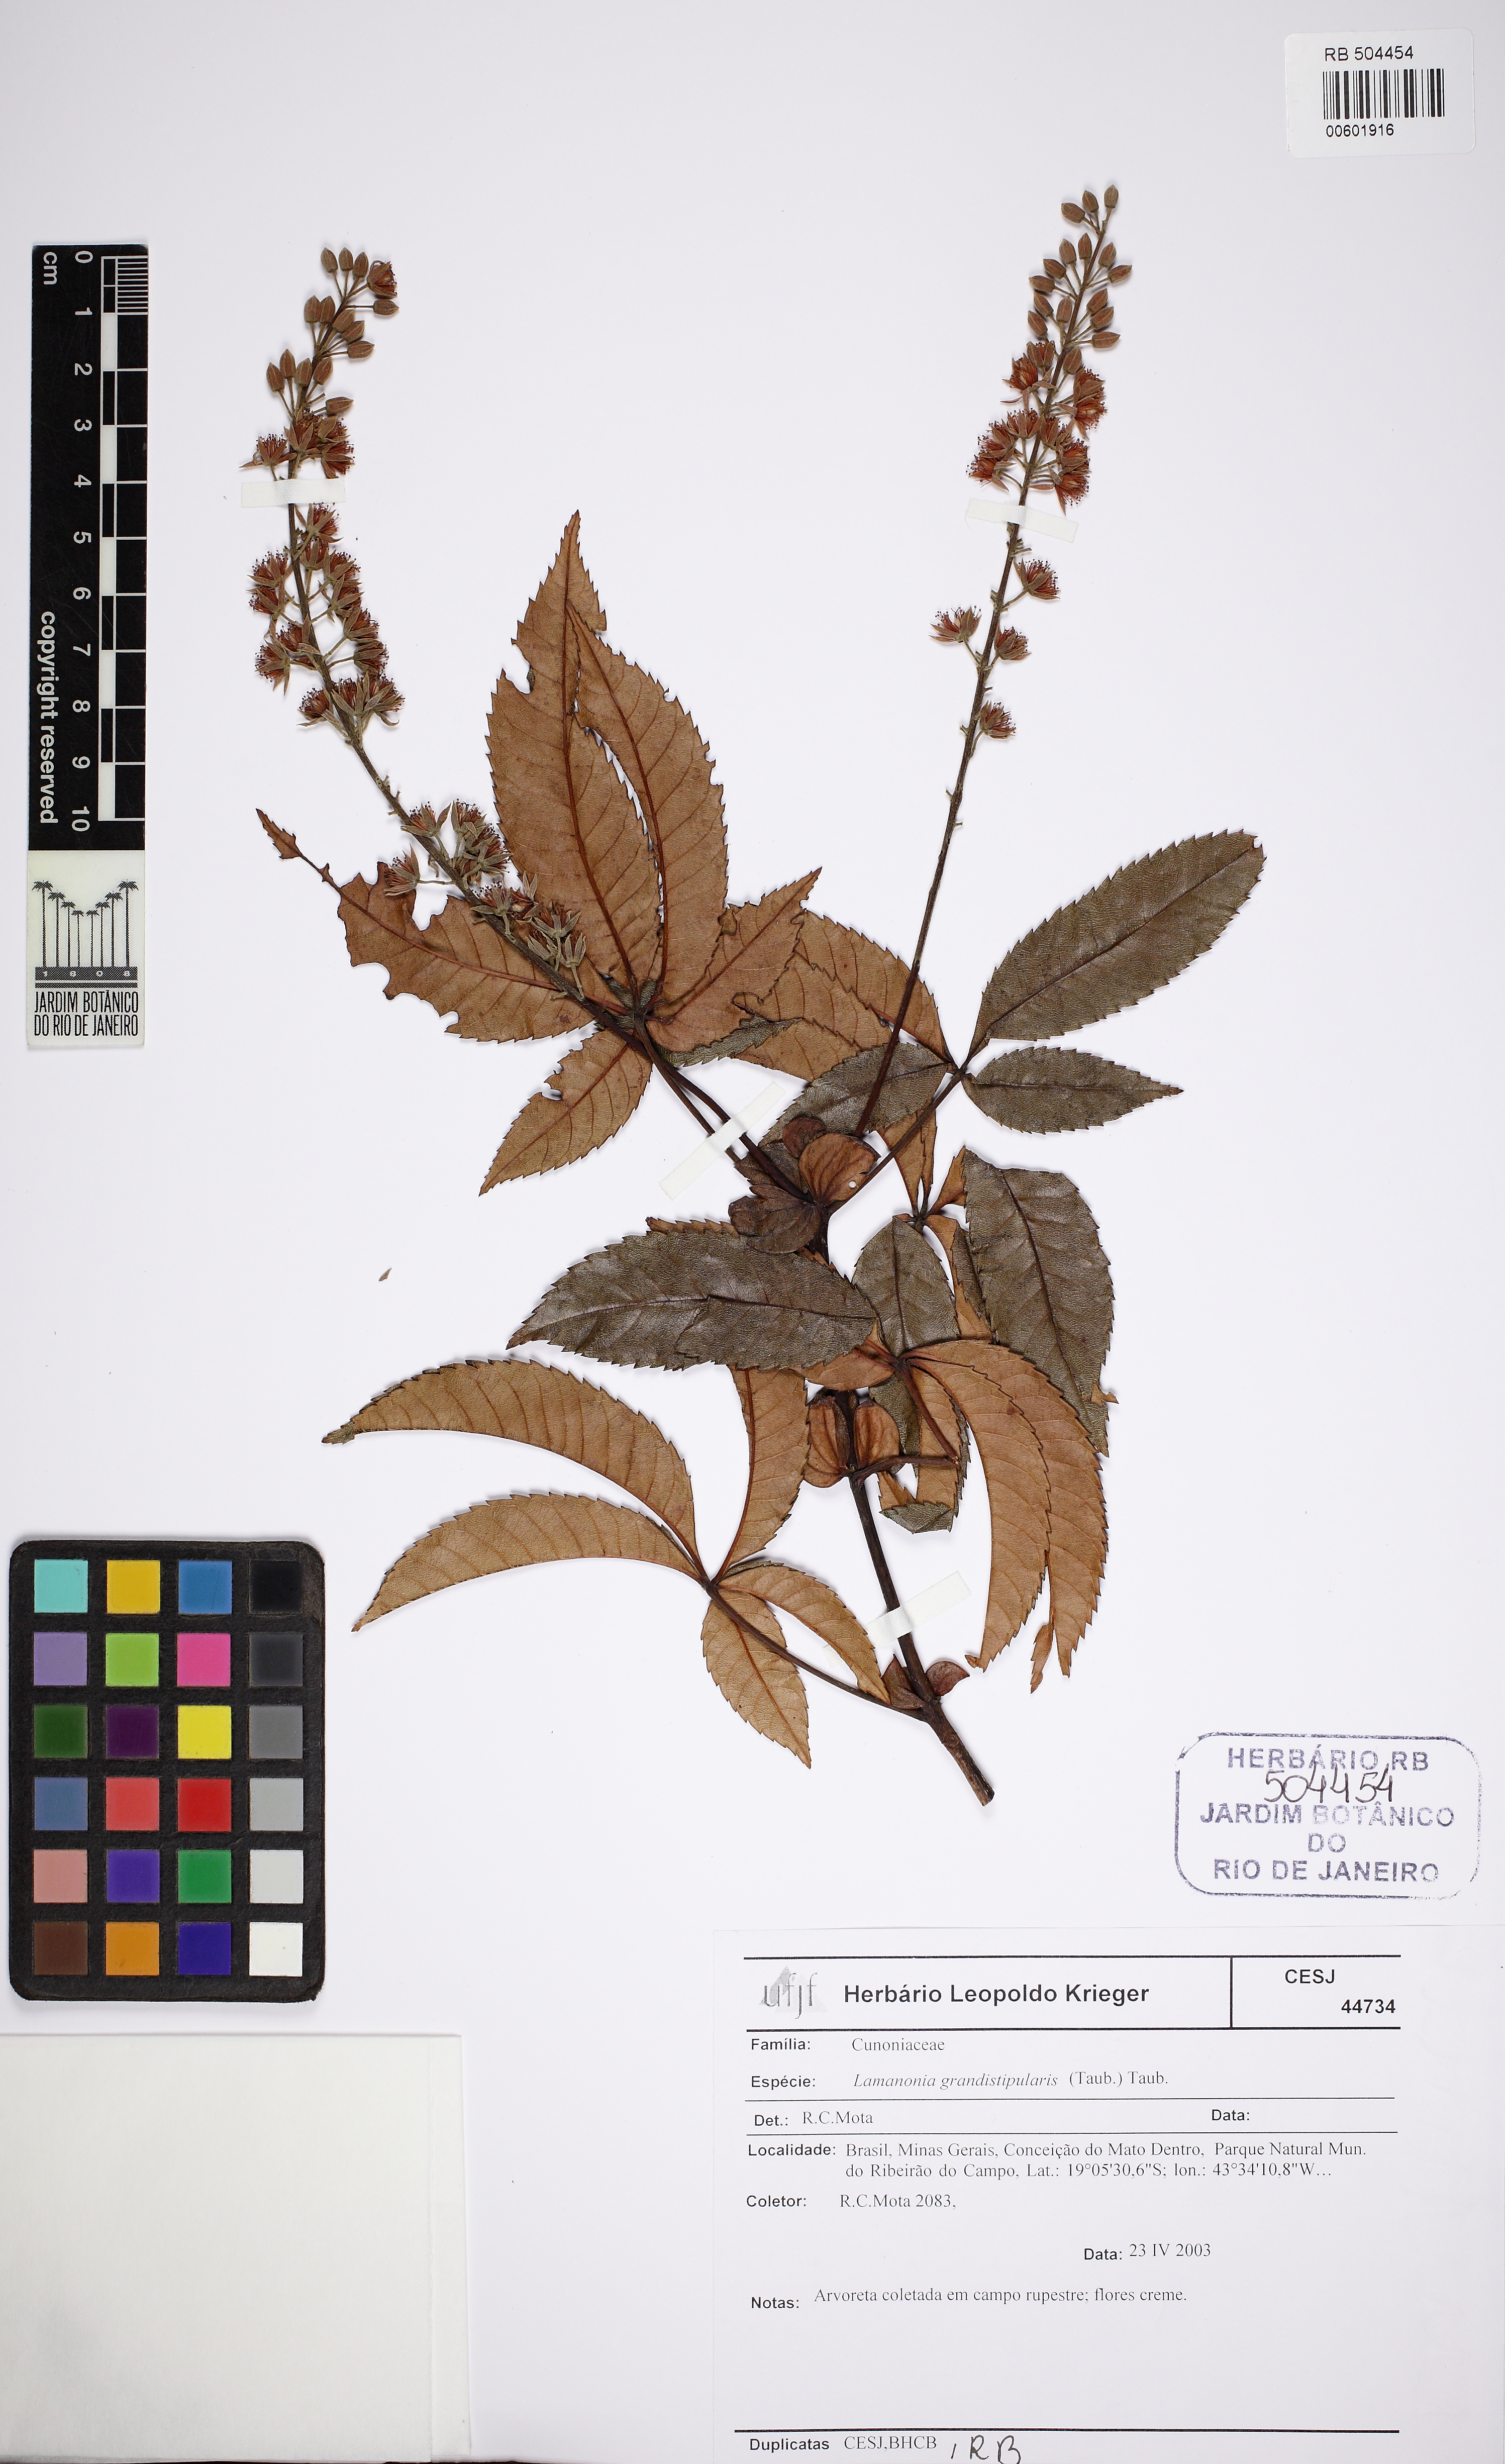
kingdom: Plantae
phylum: Tracheophyta
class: Magnoliopsida
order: Oxalidales
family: Cunoniaceae
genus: Lamanonia
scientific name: Lamanonia
